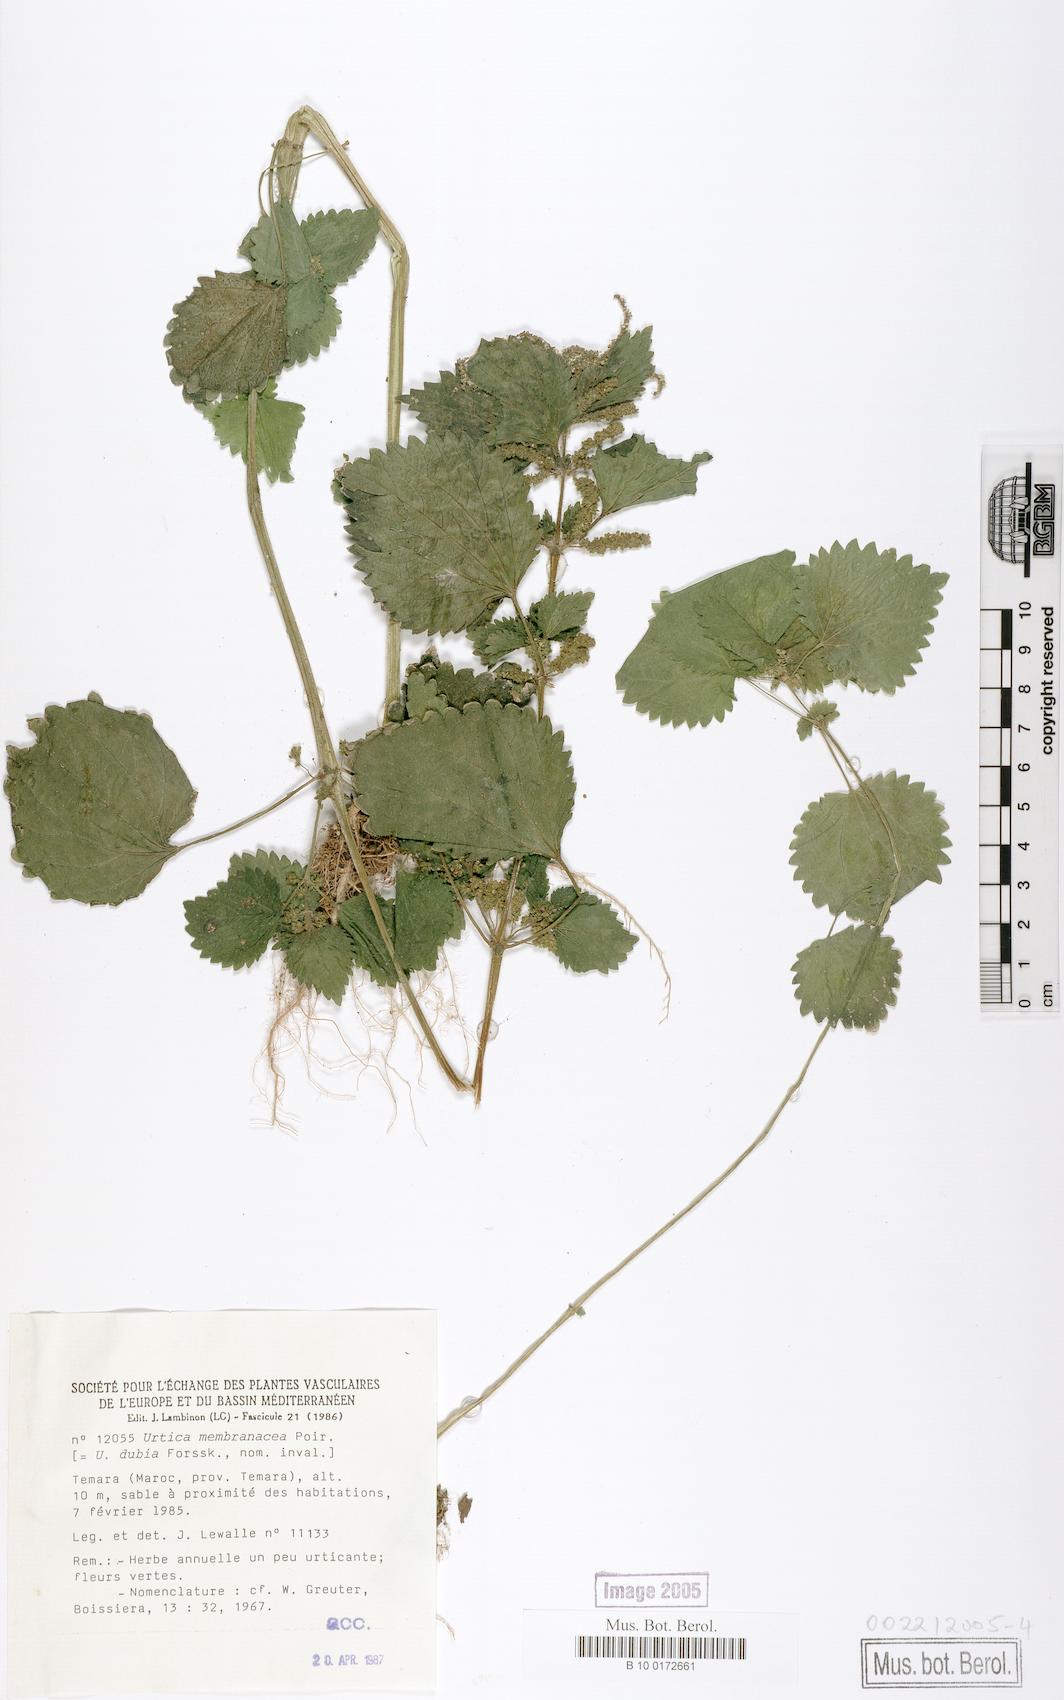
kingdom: Plantae
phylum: Tracheophyta
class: Magnoliopsida
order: Rosales
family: Urticaceae
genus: Urtica
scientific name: Urtica membranacea
